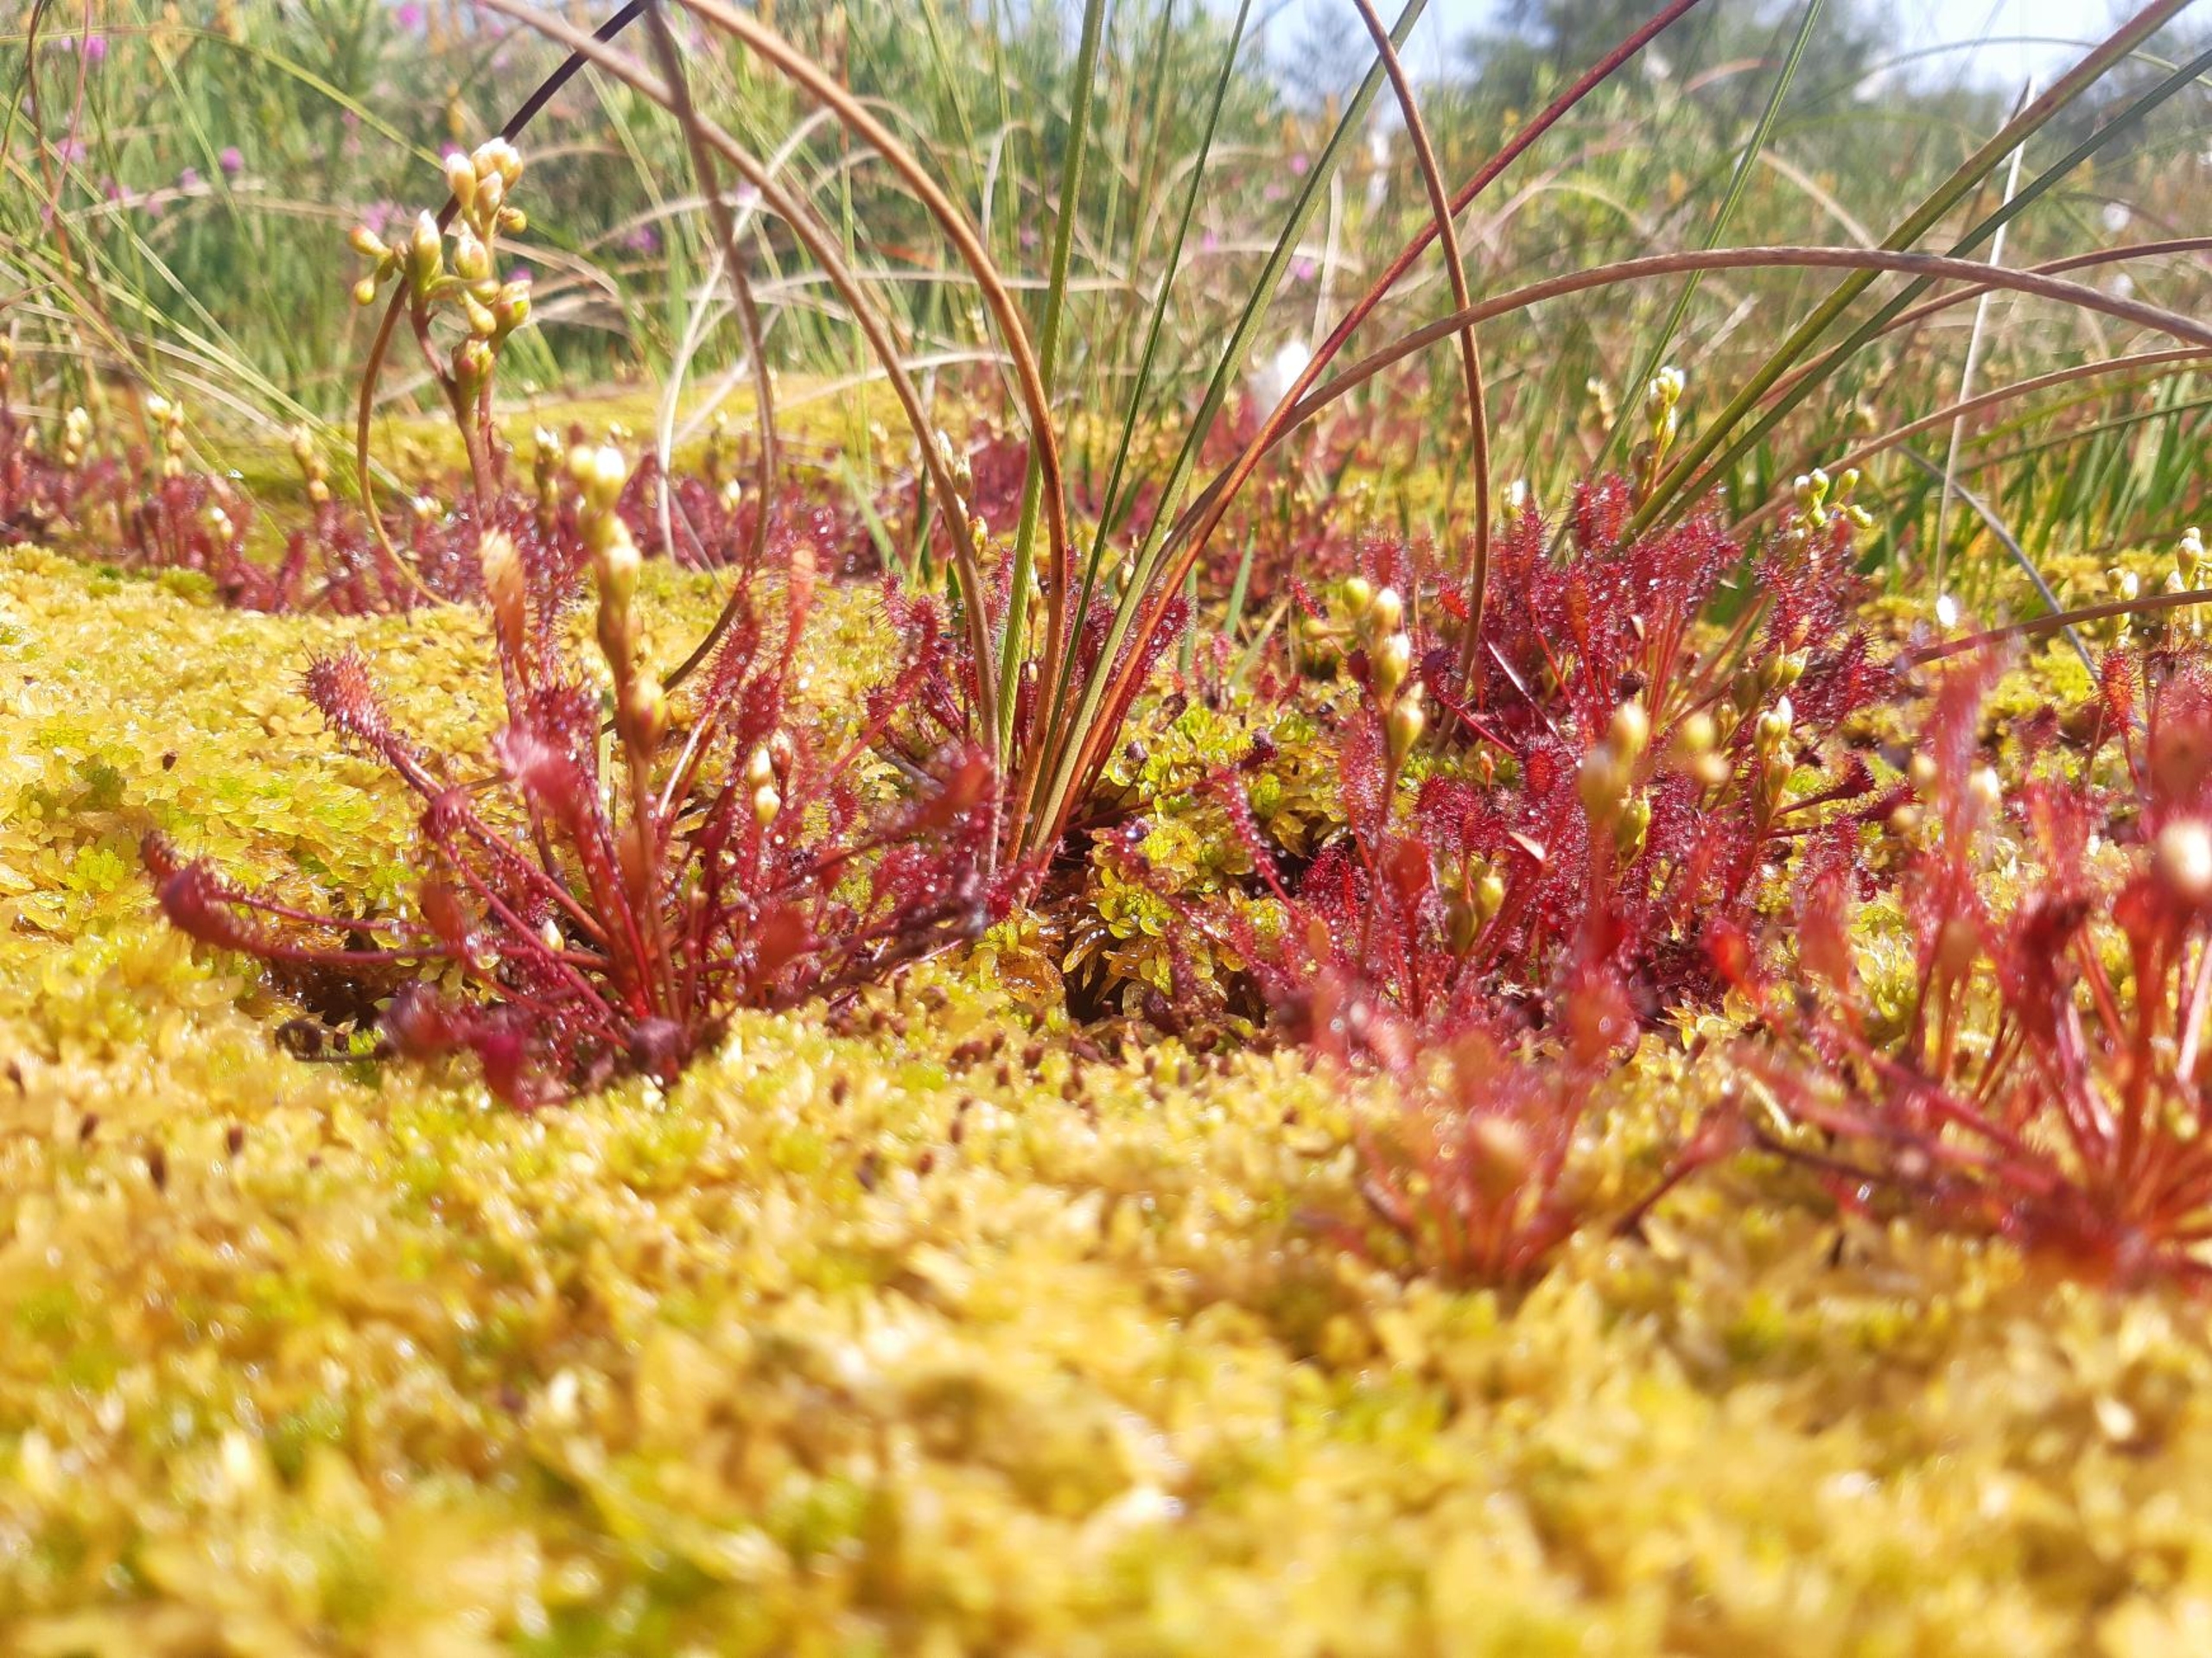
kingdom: Plantae
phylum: Tracheophyta
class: Magnoliopsida
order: Caryophyllales
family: Droseraceae
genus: Drosera
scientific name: Drosera intermedia
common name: Liden soldug
